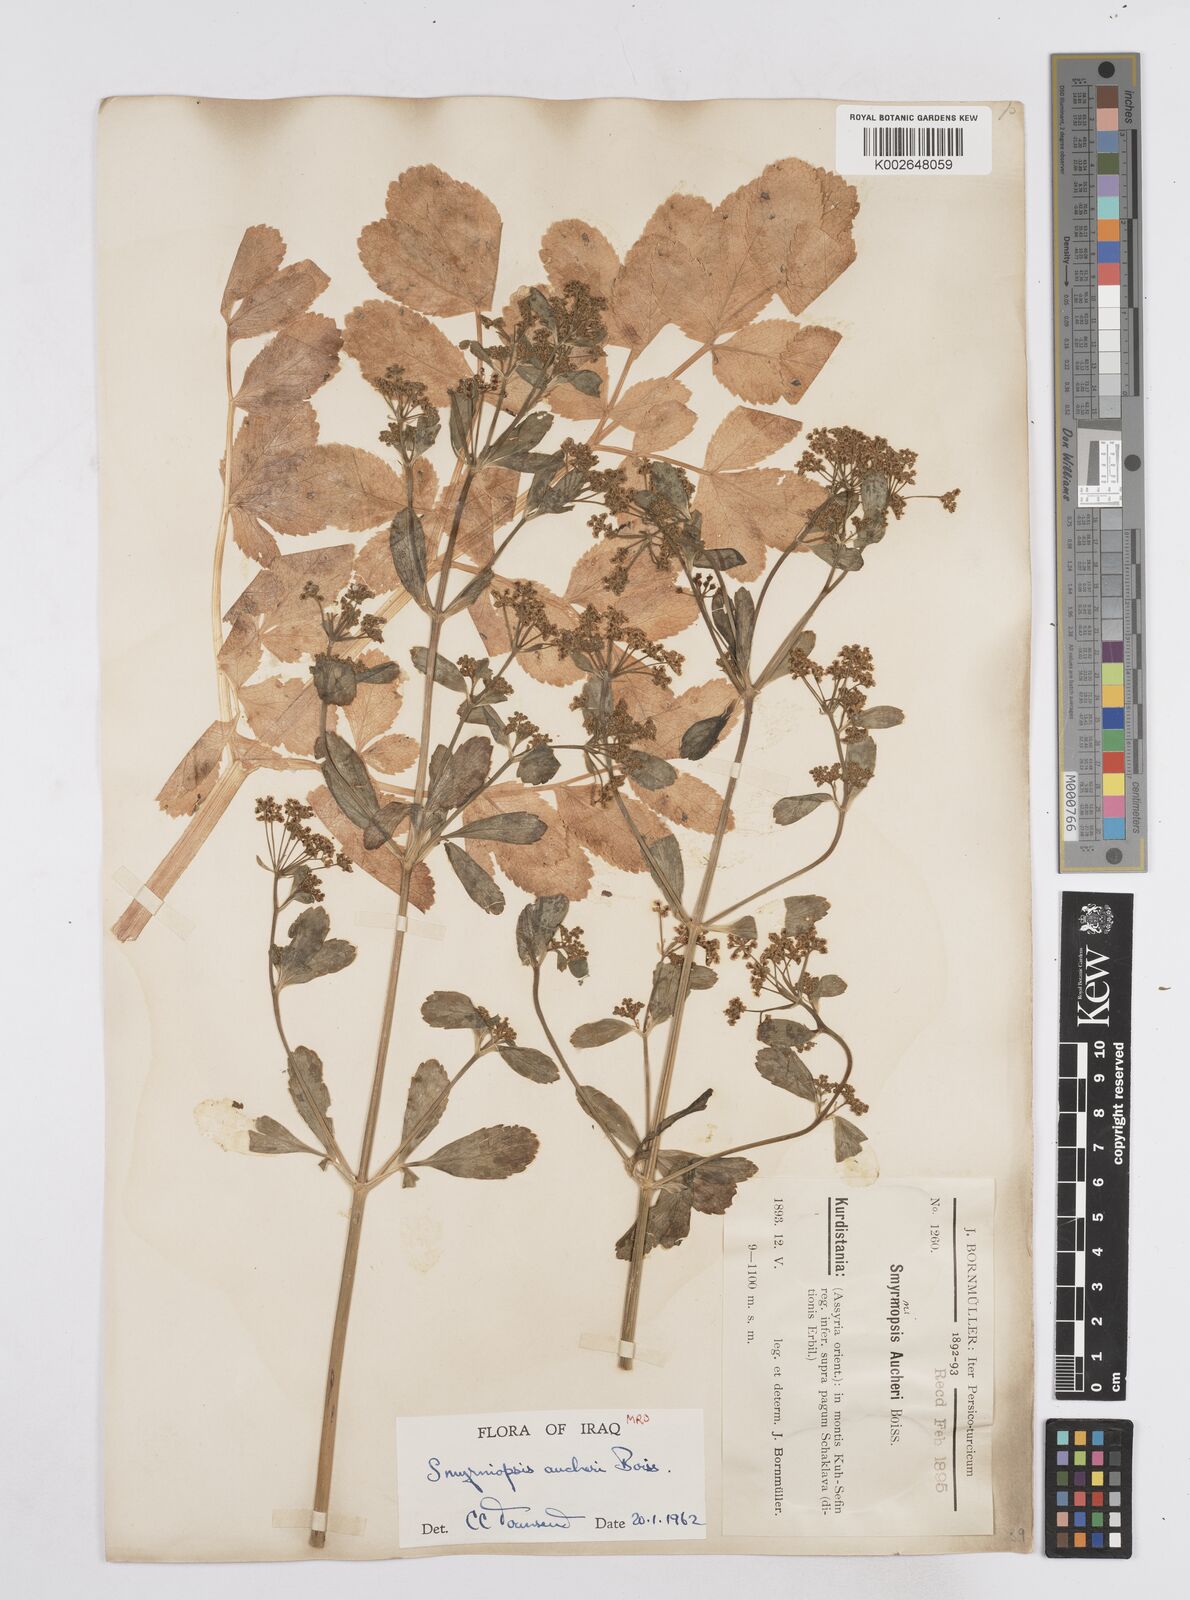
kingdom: Plantae
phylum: Tracheophyta
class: Magnoliopsida
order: Apiales
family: Apiaceae
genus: Smyrniopsis
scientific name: Smyrniopsis aucheri
